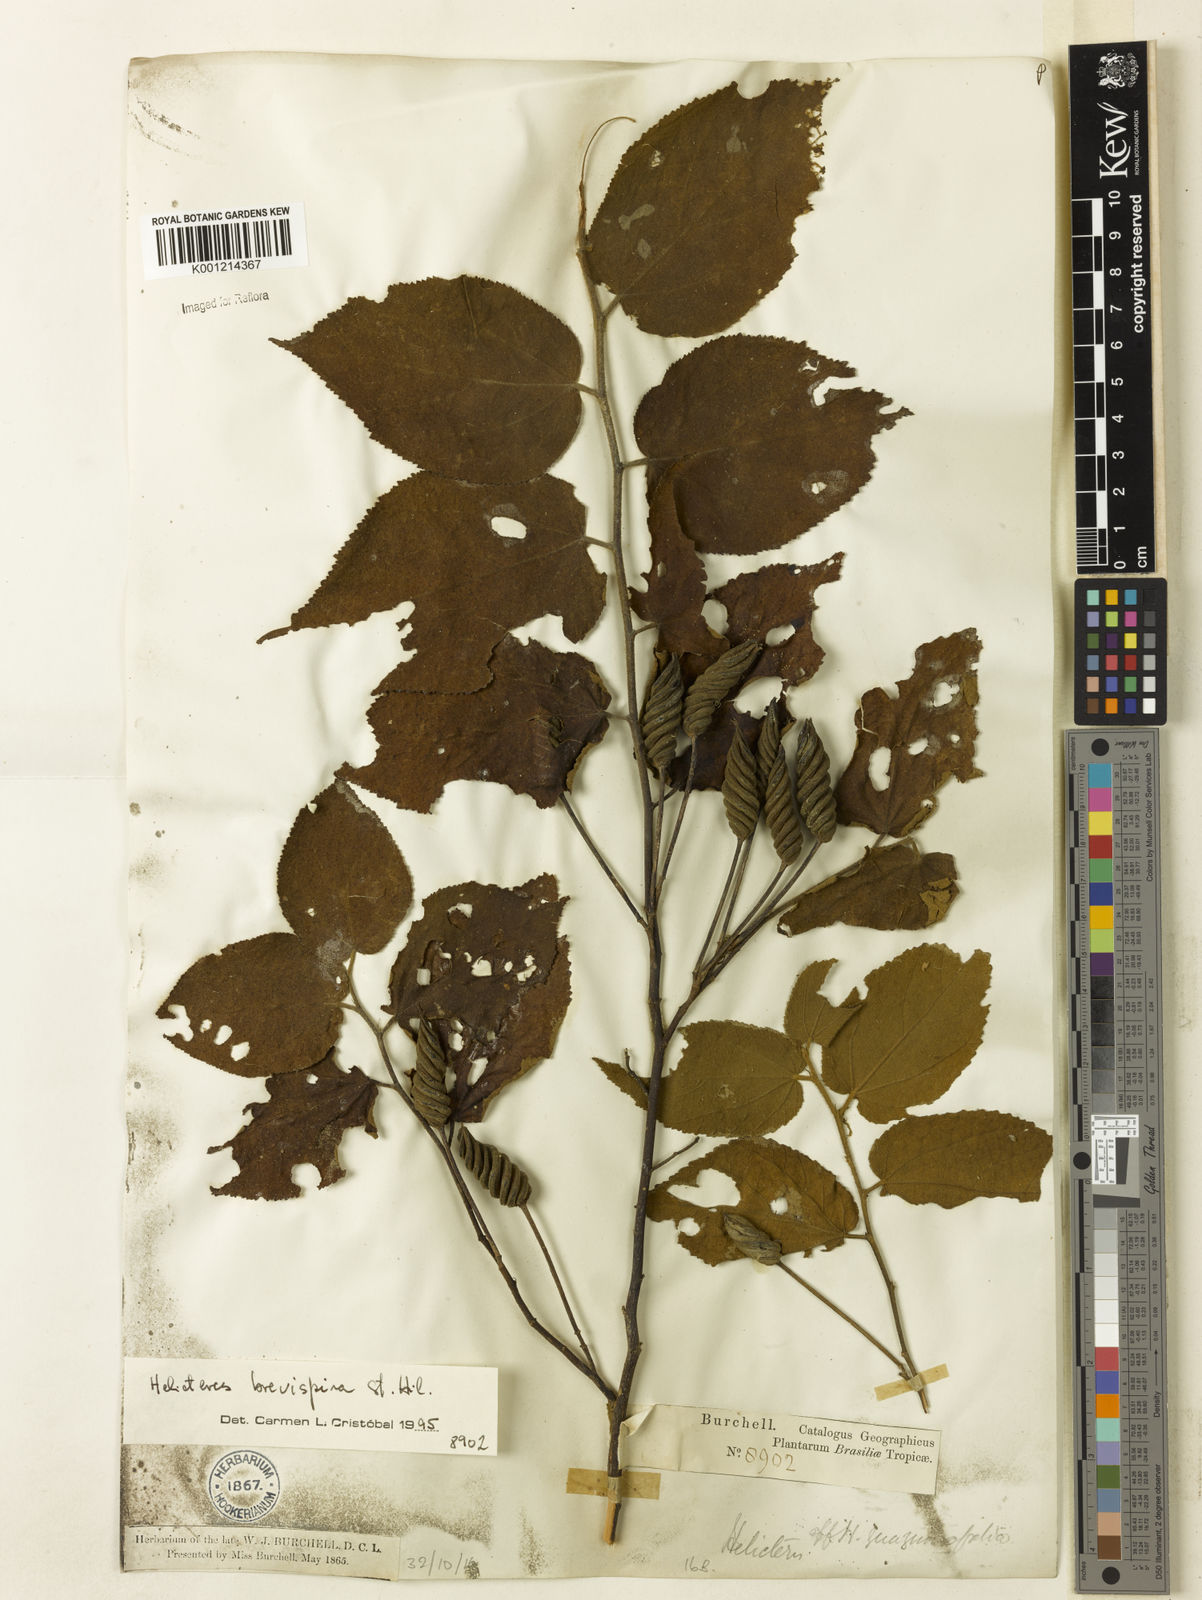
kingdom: Plantae
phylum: Tracheophyta
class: Magnoliopsida
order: Malvales
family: Malvaceae
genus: Helicteres
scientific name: Helicteres
